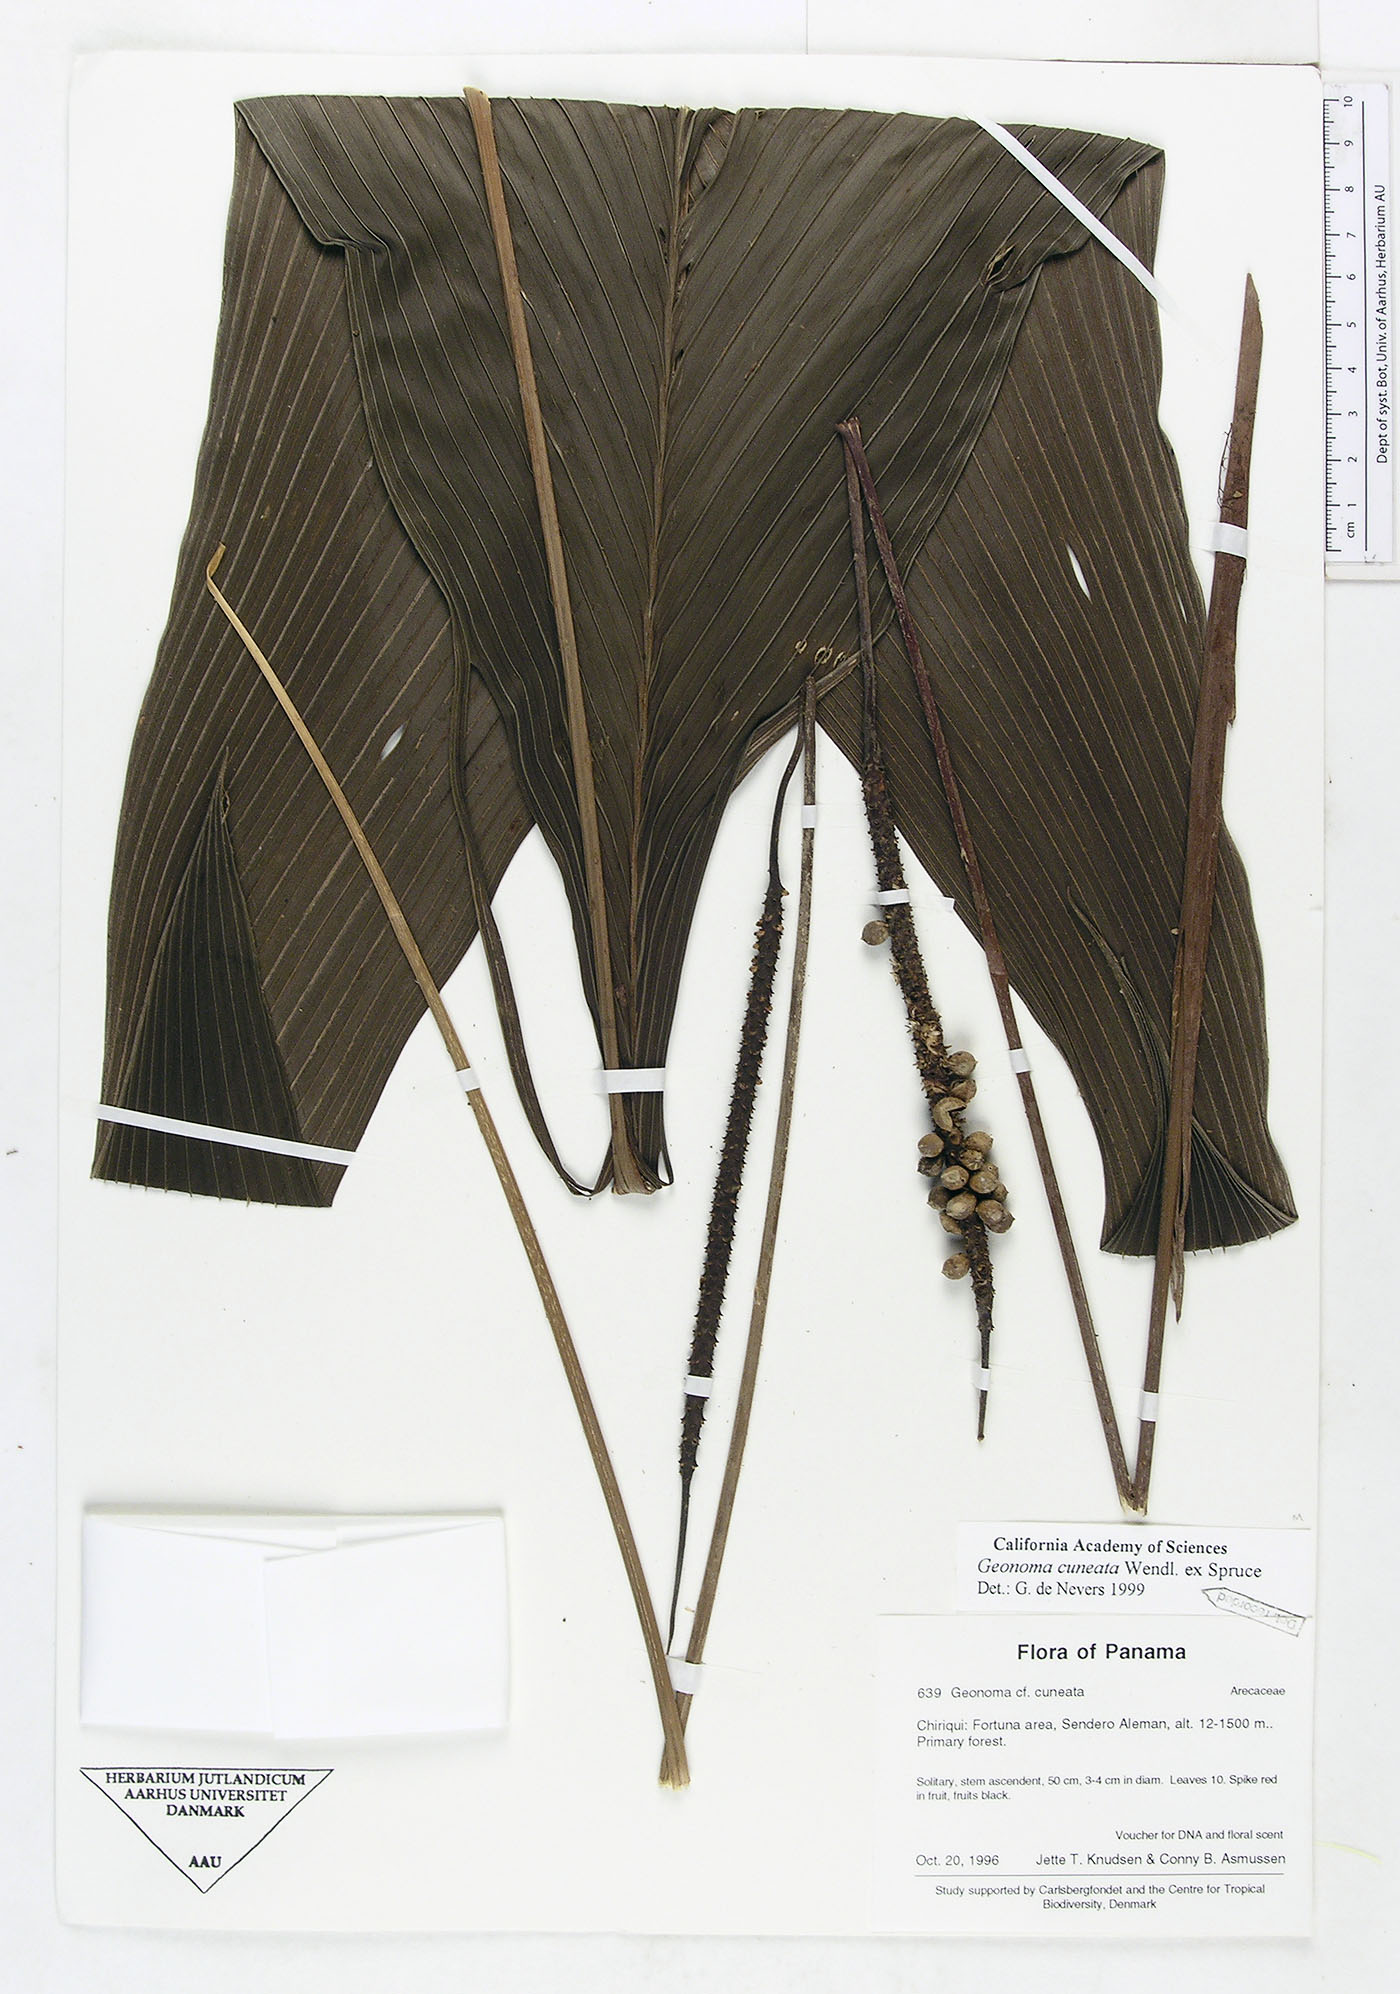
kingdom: Plantae
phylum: Tracheophyta
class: Liliopsida
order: Arecales
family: Arecaceae
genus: Geonoma
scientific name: Geonoma cuneata
